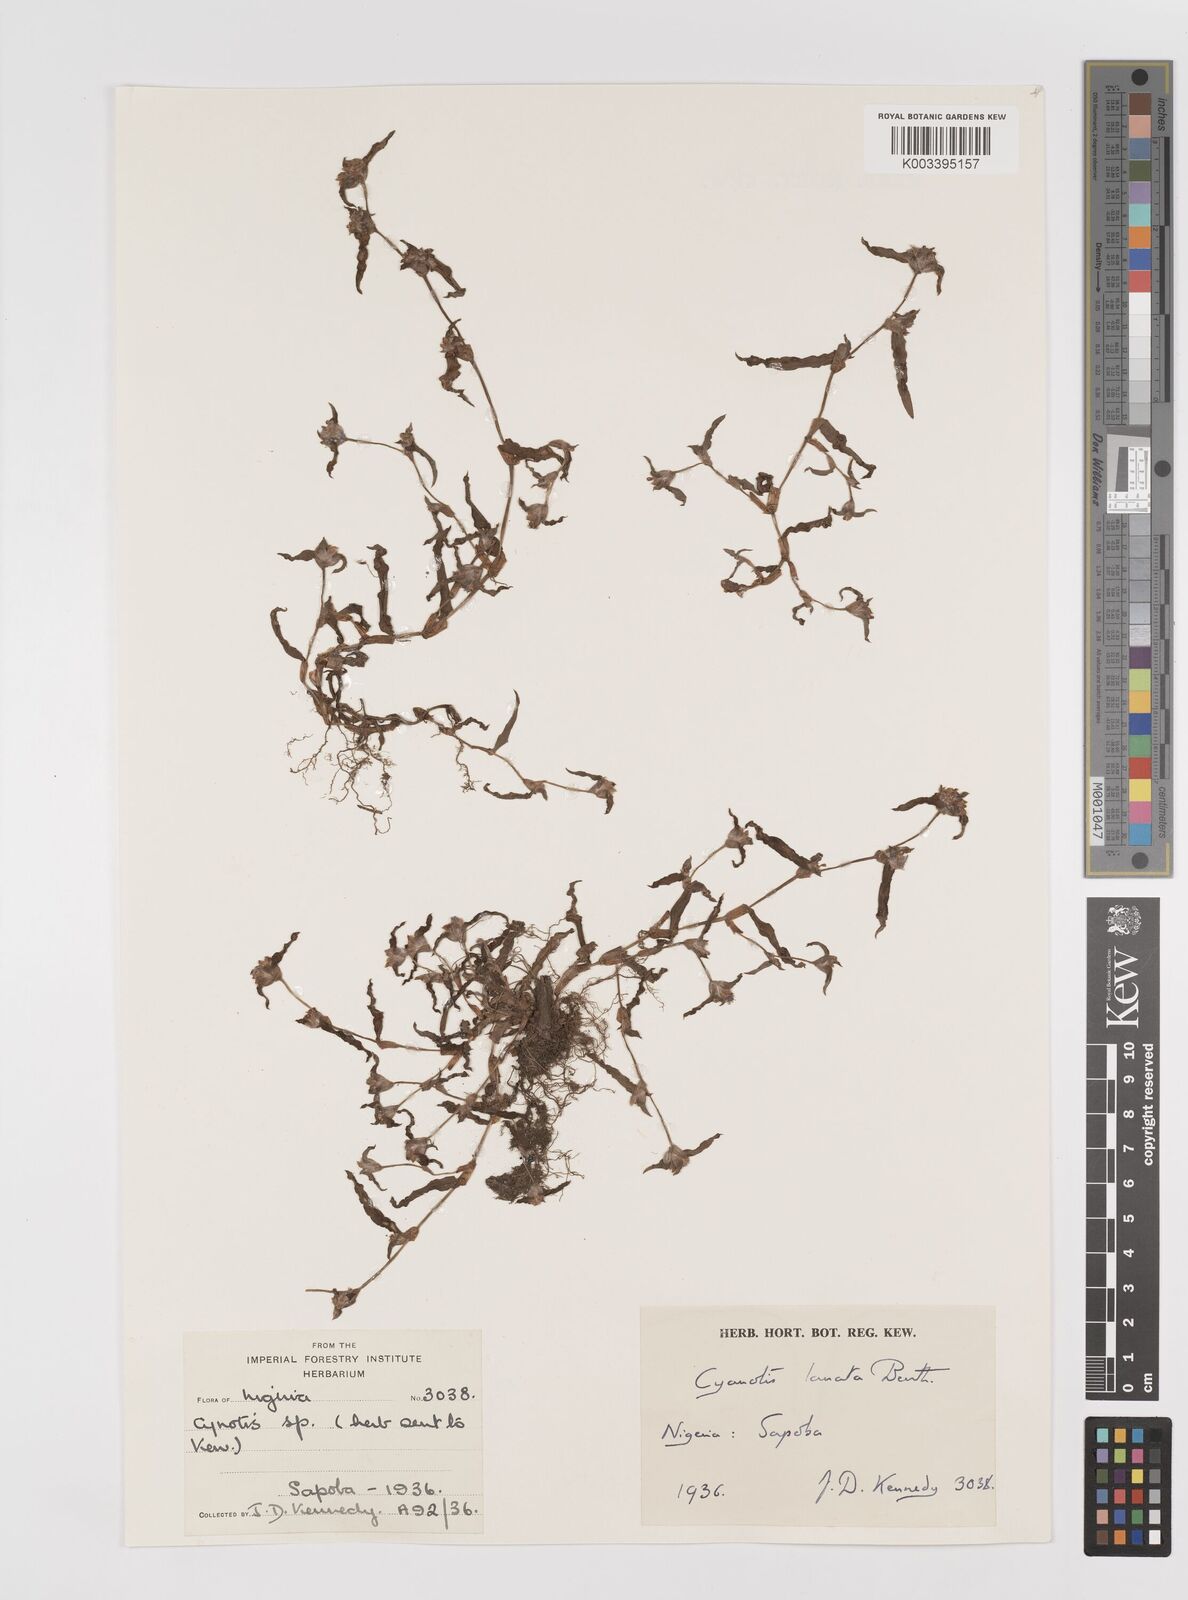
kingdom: Plantae
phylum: Tracheophyta
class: Liliopsida
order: Commelinales
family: Commelinaceae
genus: Cyanotis
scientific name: Cyanotis lanata
